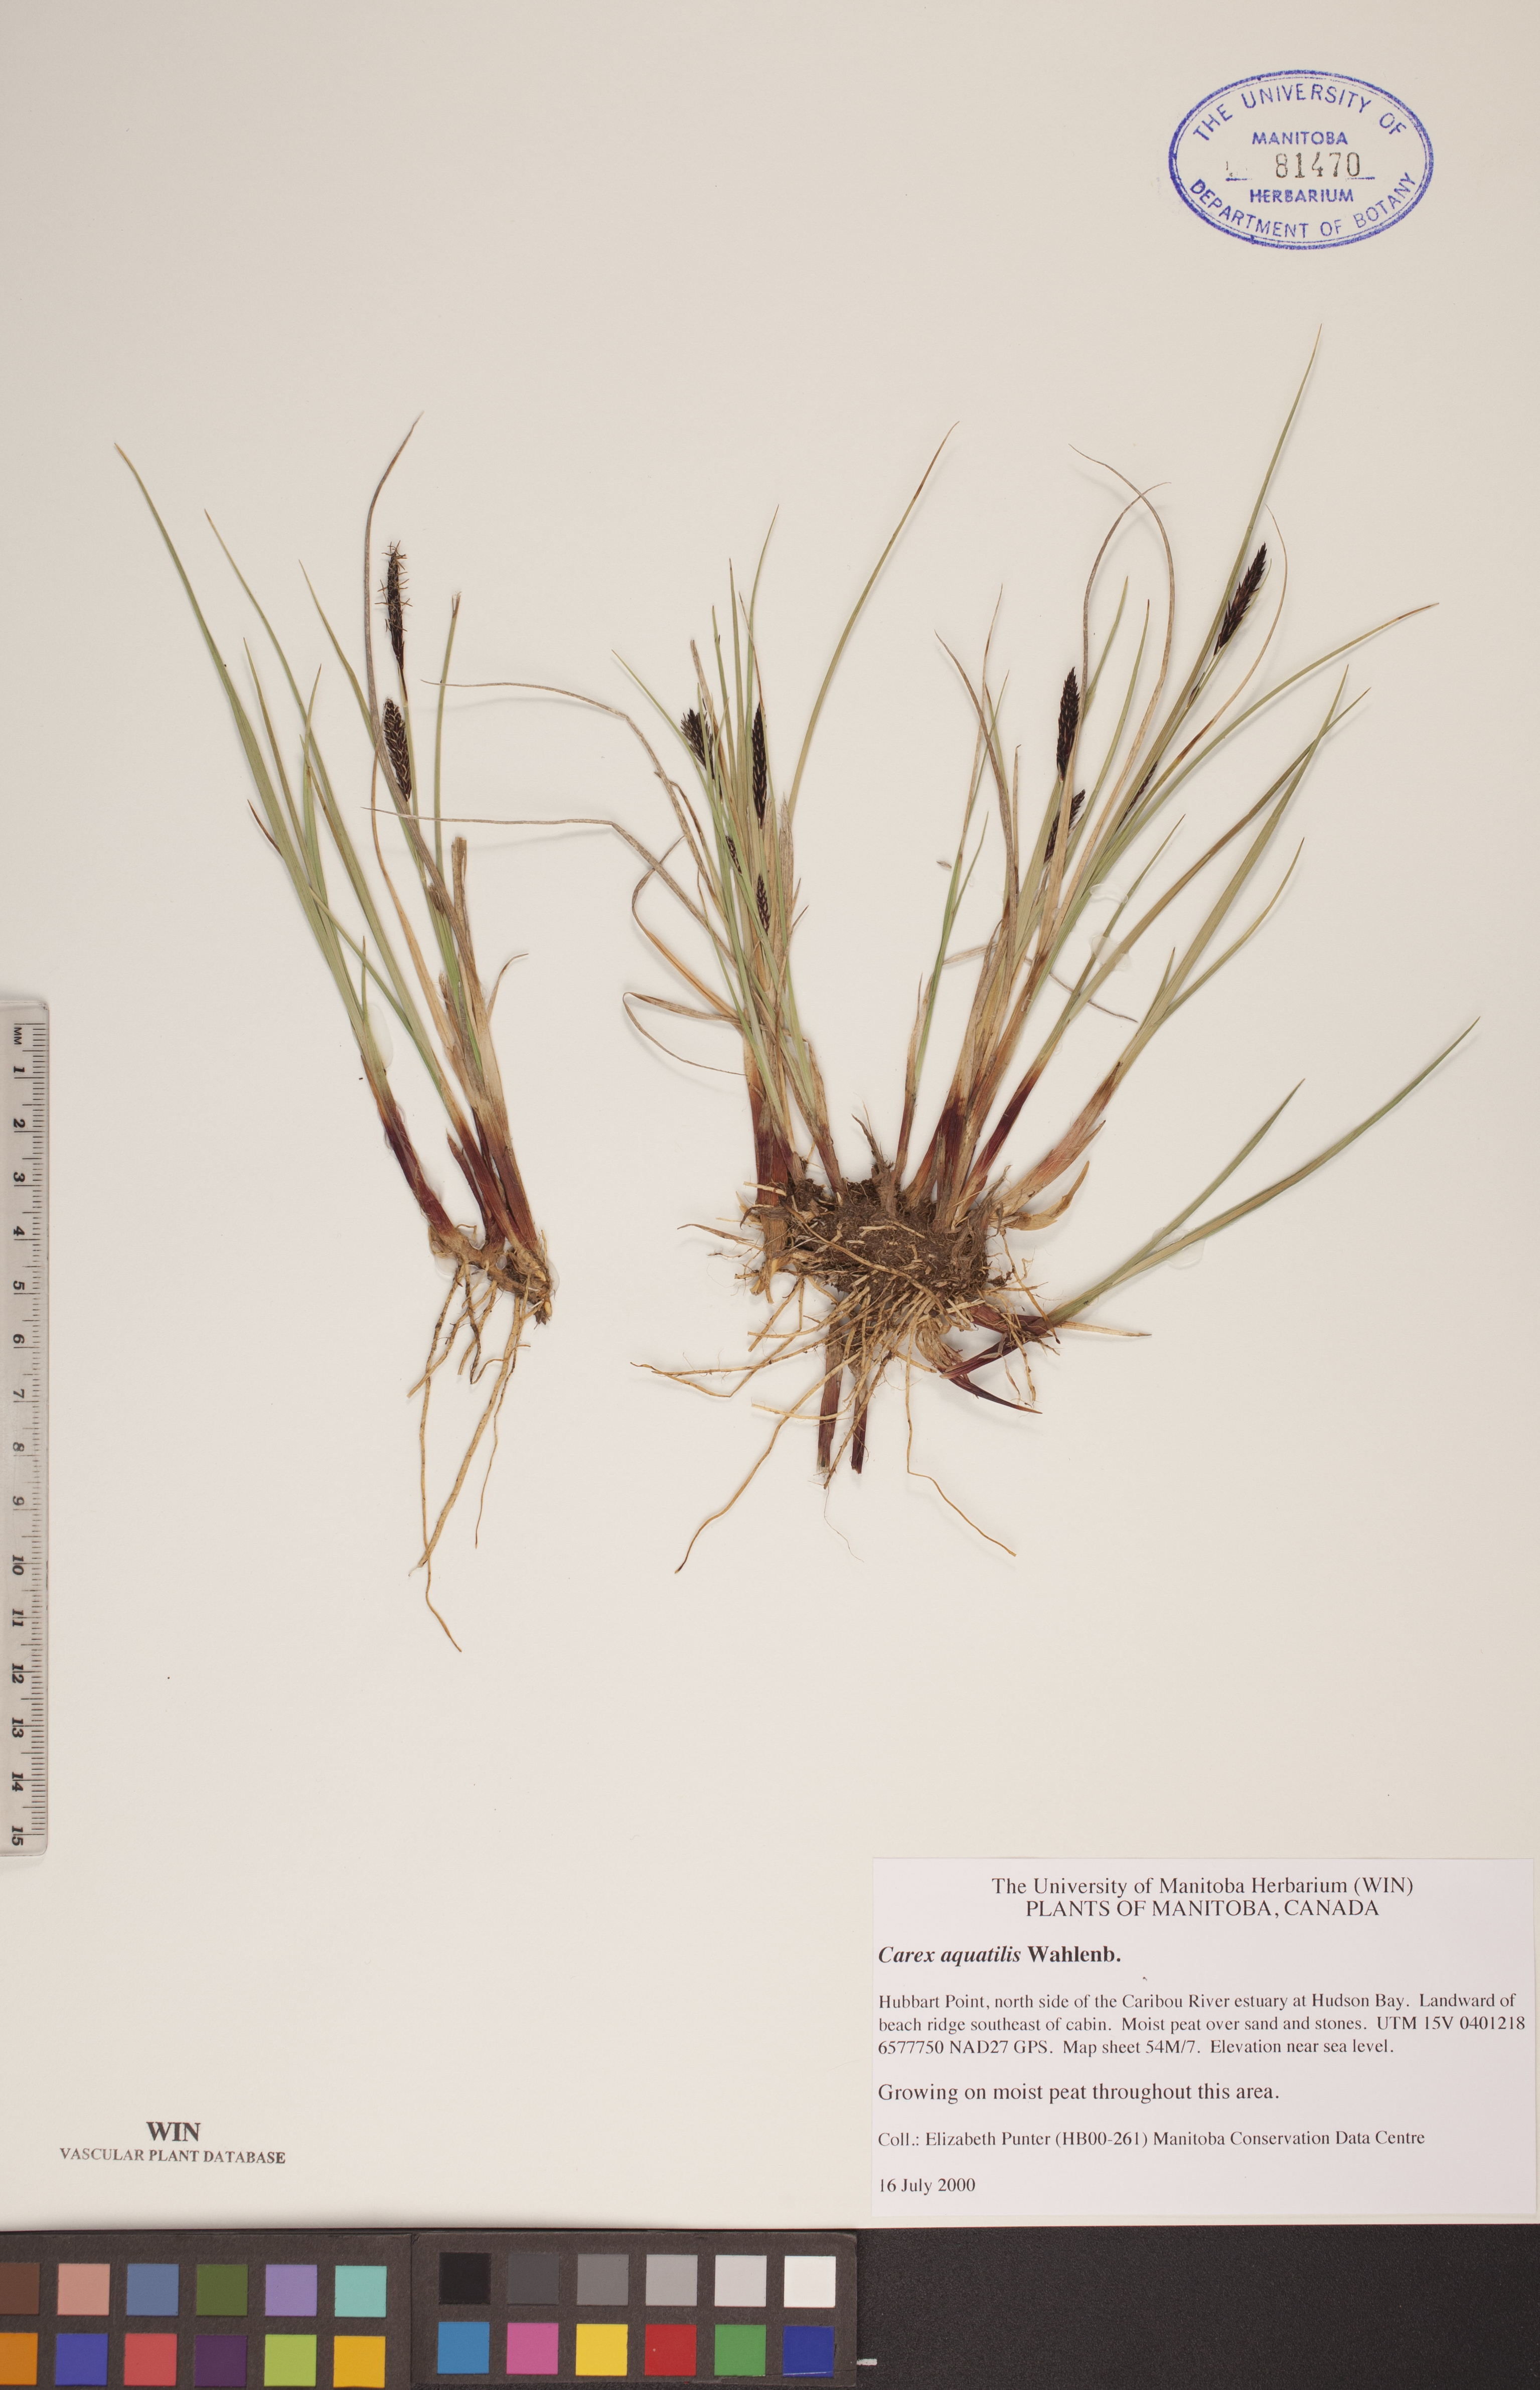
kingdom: Plantae
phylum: Tracheophyta
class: Liliopsida
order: Poales
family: Cyperaceae
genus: Carex
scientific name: Carex aquatilis
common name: Water sedge
